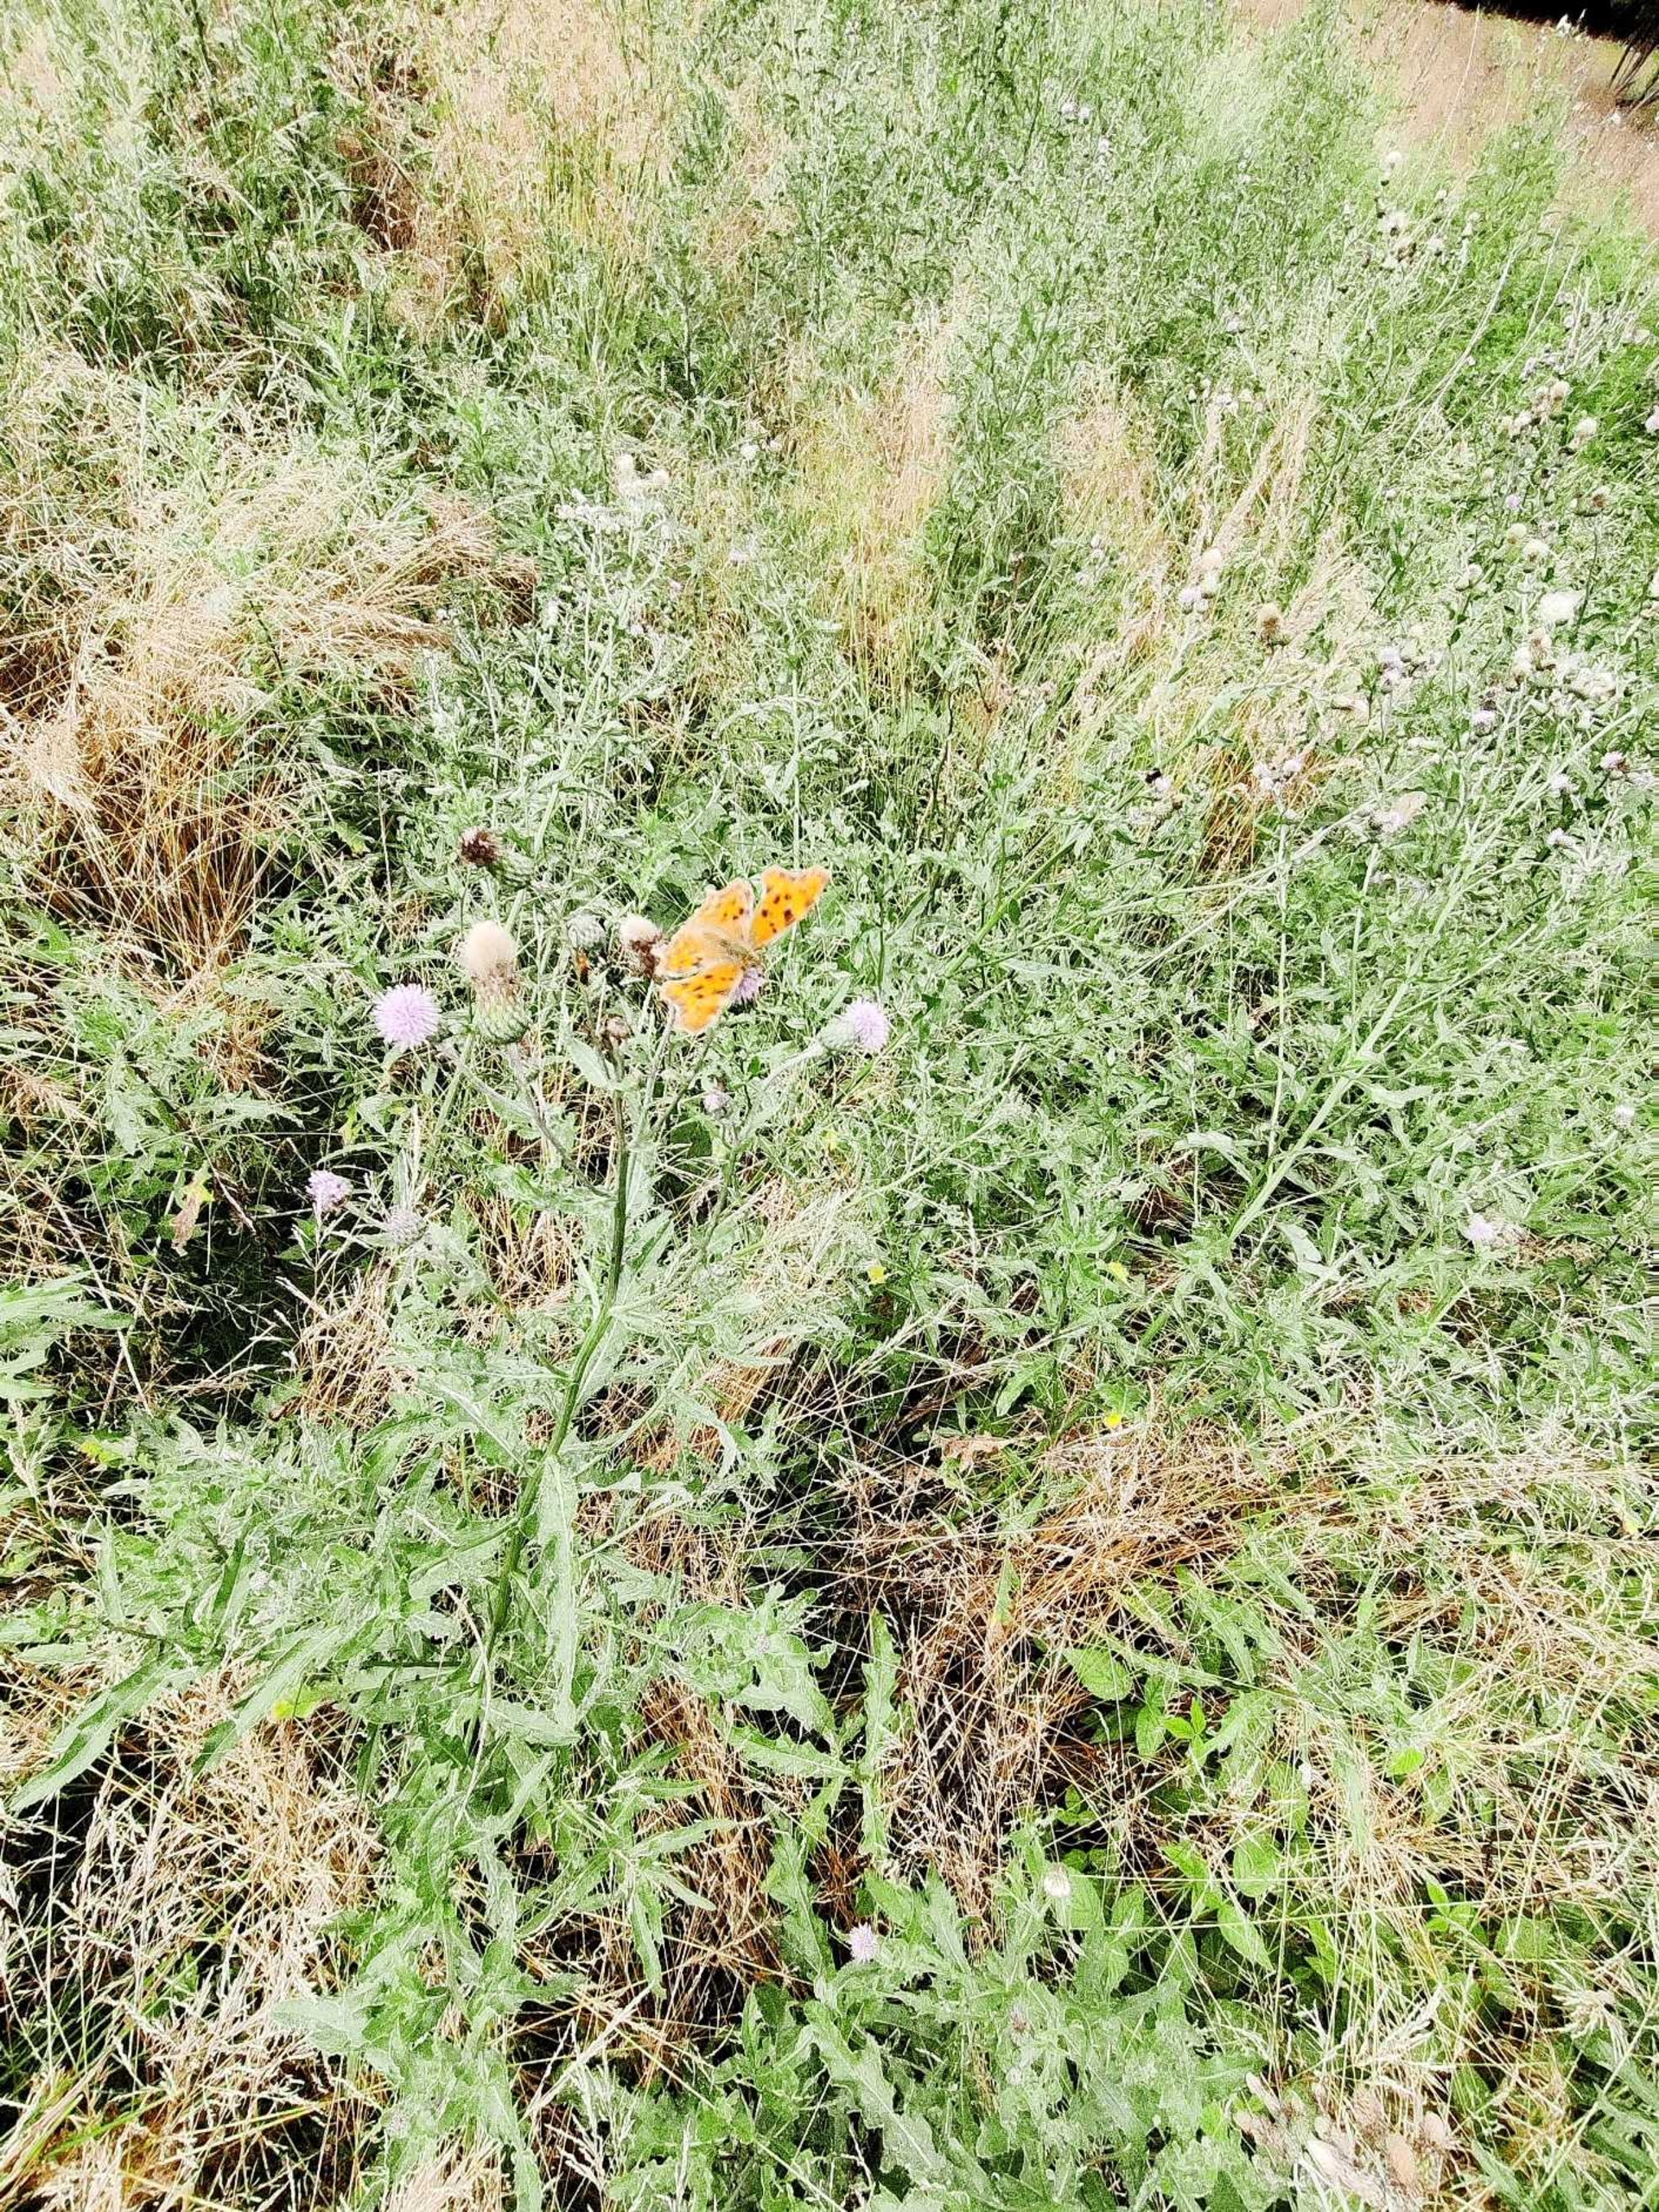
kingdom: Animalia
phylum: Arthropoda
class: Insecta
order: Lepidoptera
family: Nymphalidae
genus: Polygonia
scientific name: Polygonia c-album
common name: Det hvide C
